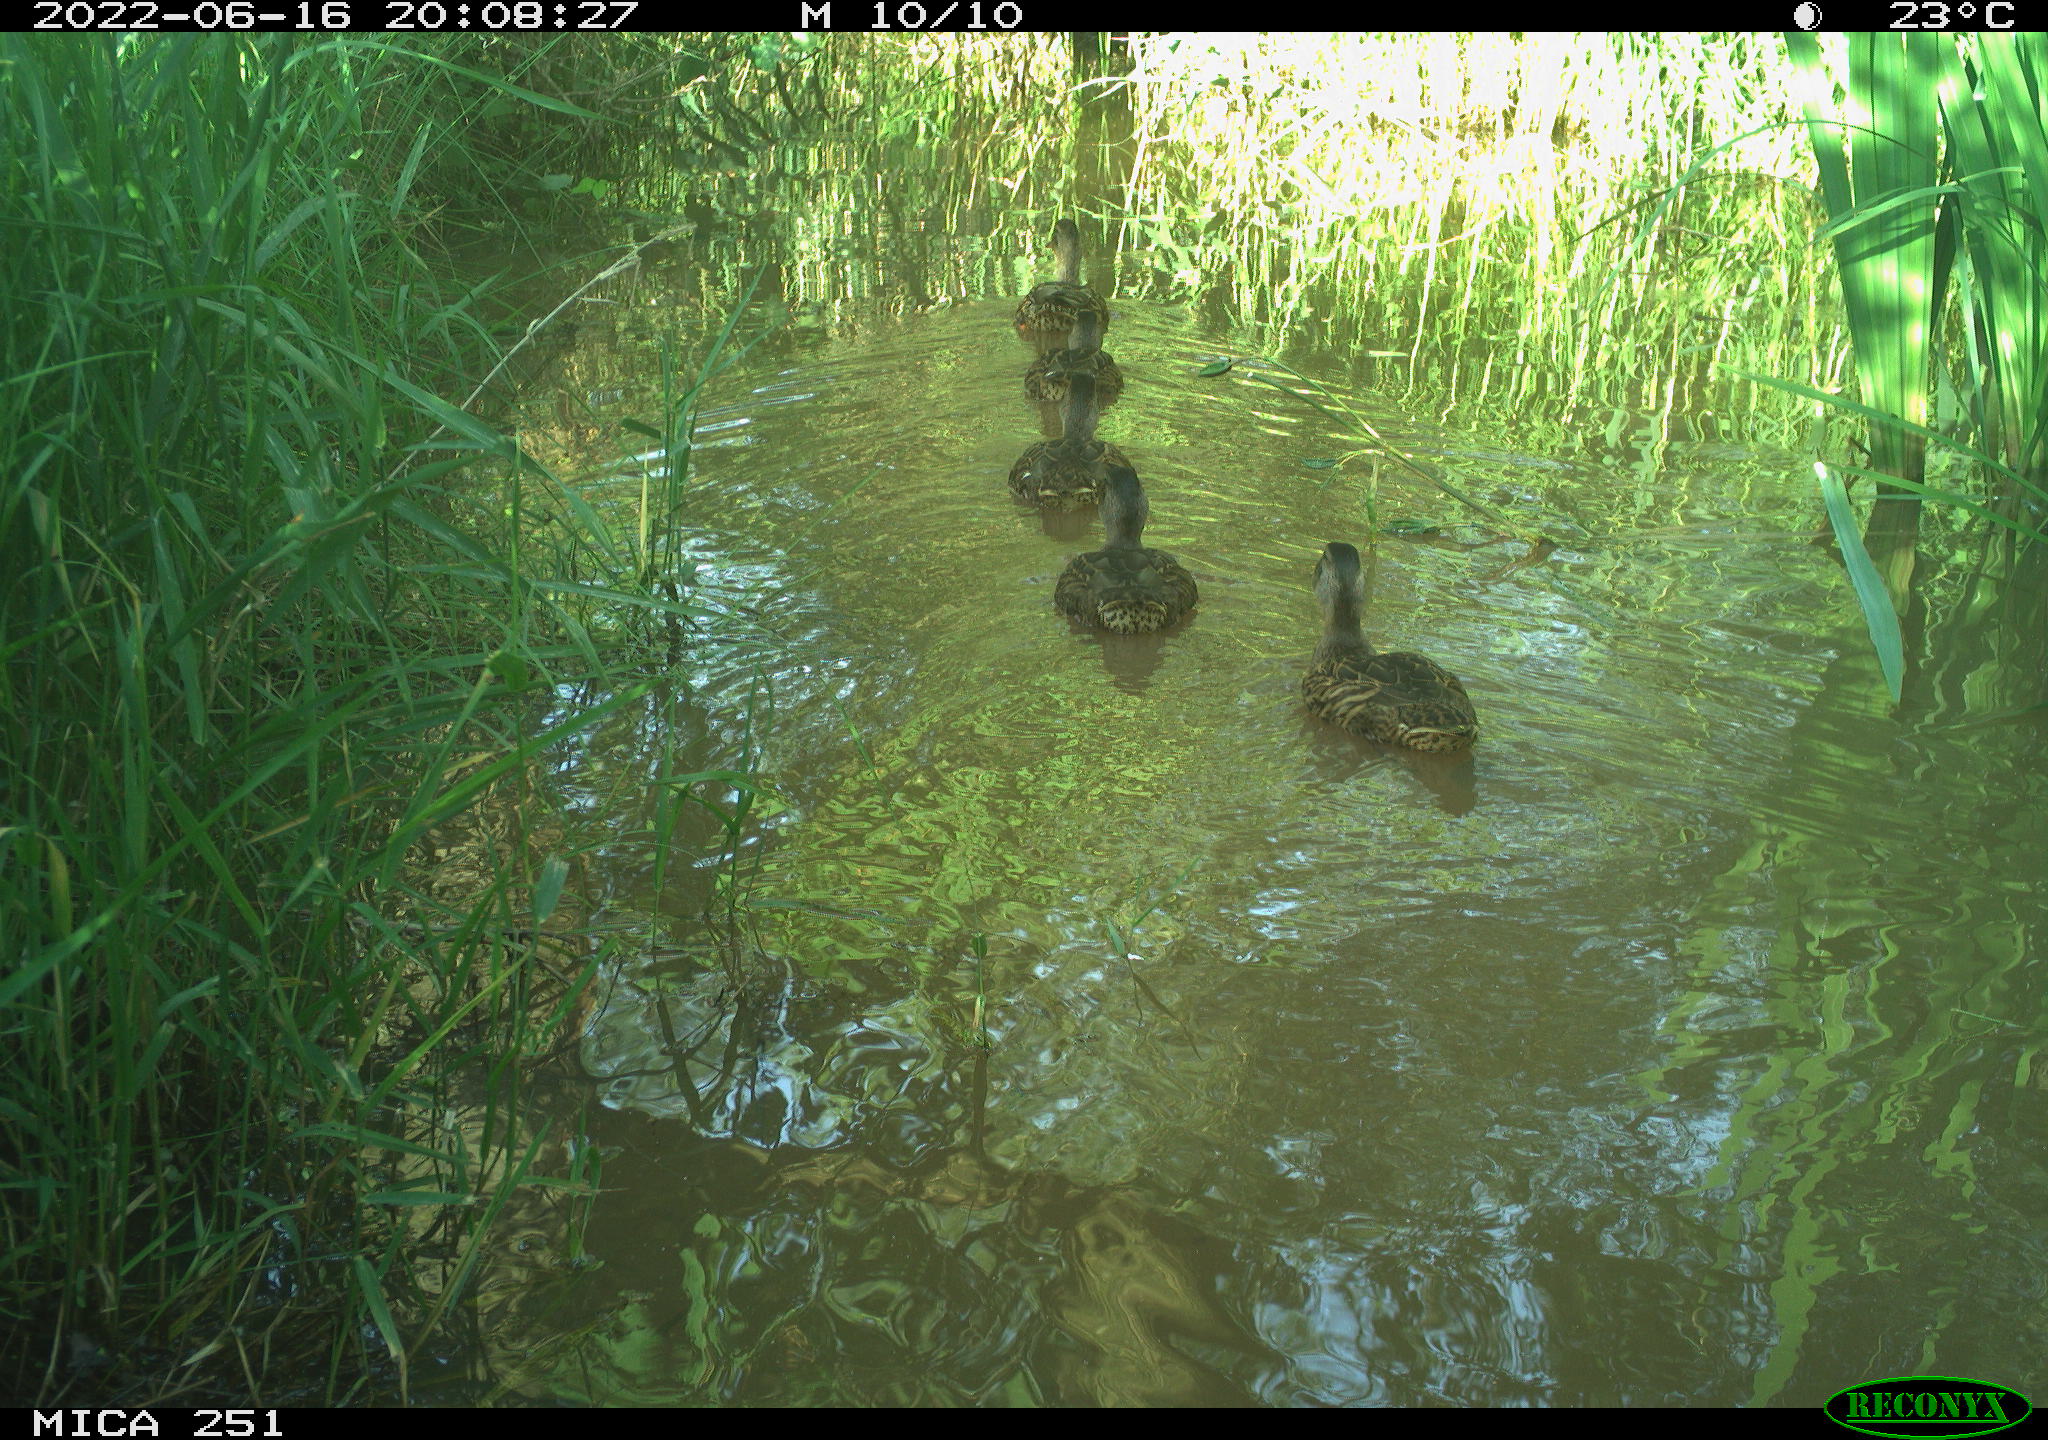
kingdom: Animalia
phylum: Chordata
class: Aves
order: Anseriformes
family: Anatidae
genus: Mareca
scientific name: Mareca strepera
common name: Gadwall
